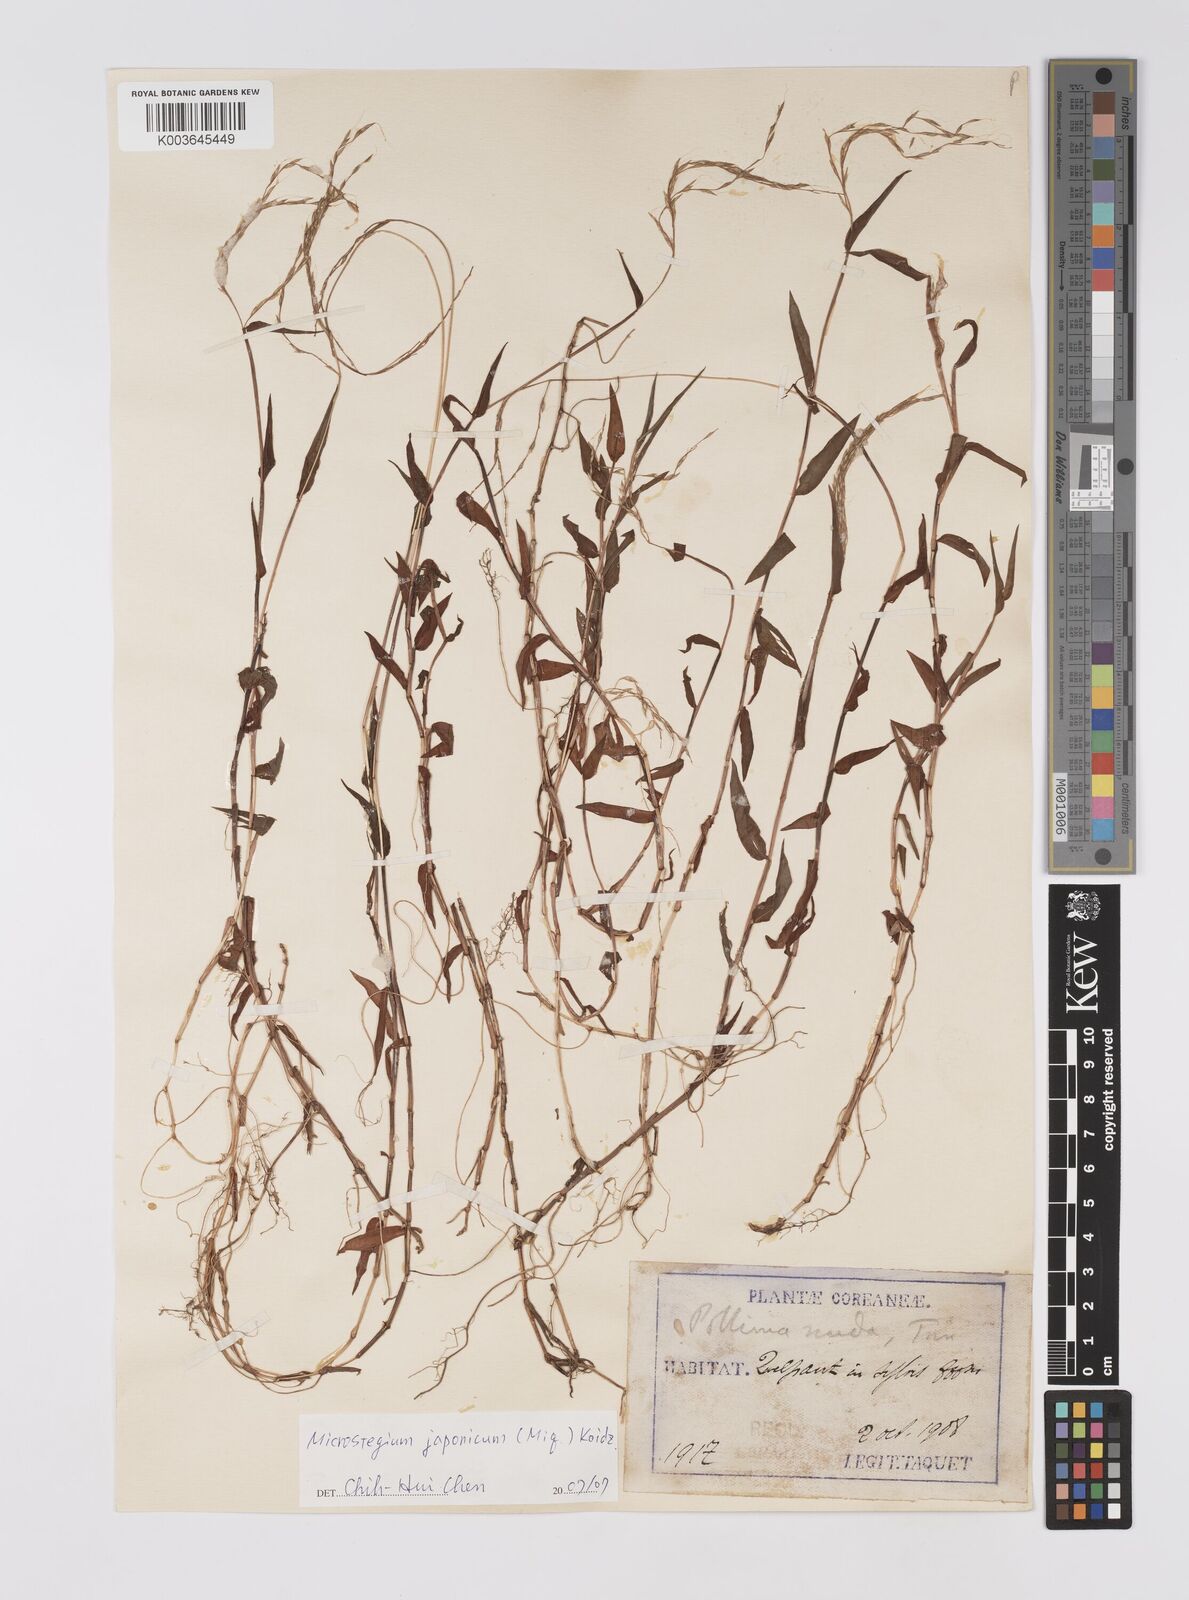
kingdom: Plantae
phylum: Tracheophyta
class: Liliopsida
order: Poales
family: Poaceae
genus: Microstegium
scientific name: Microstegium japonicum
